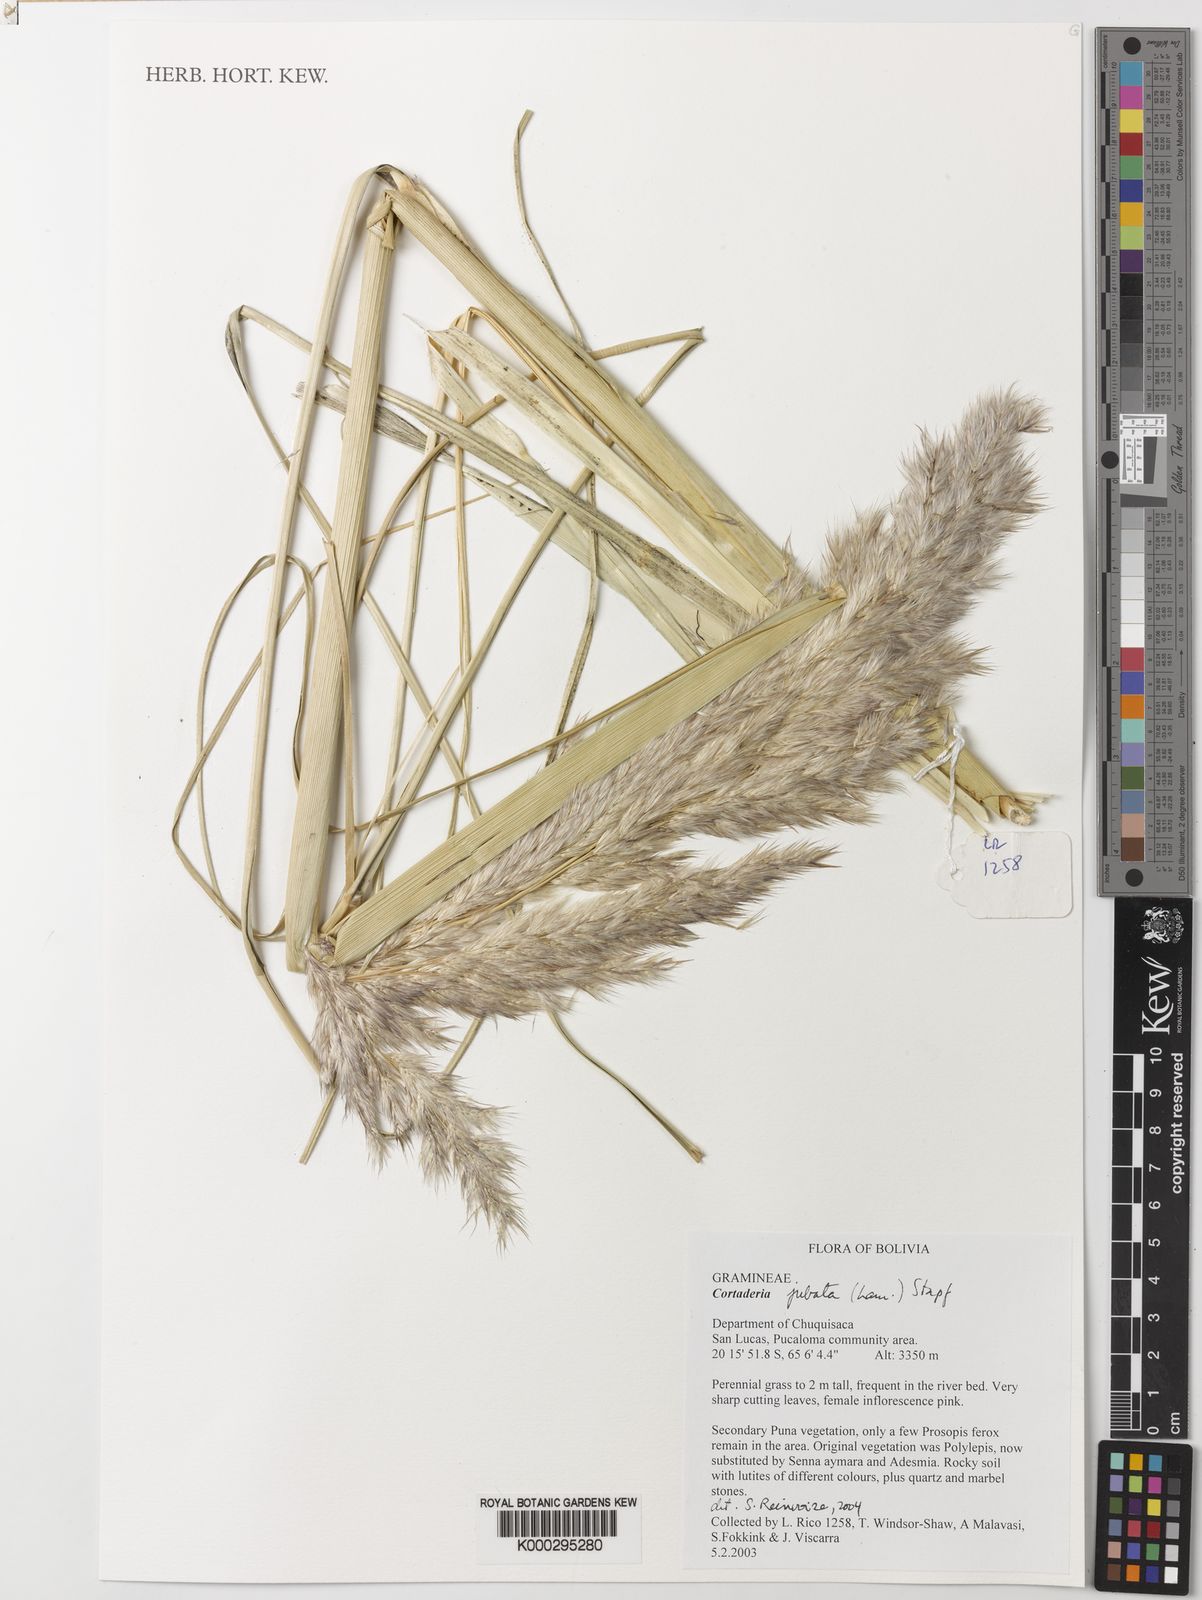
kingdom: Plantae
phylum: Tracheophyta
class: Liliopsida
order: Poales
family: Poaceae
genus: Cortaderia
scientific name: Cortaderia jubata
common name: Purple pampas grass
